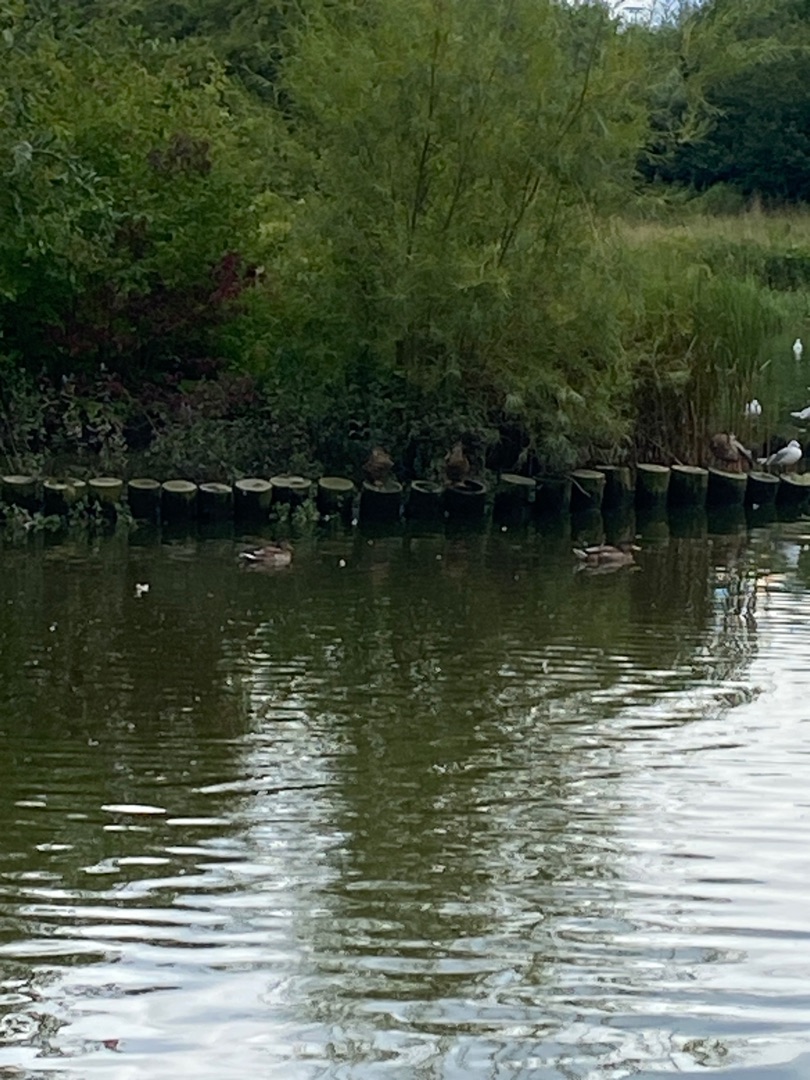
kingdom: Animalia
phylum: Chordata
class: Aves
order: Anseriformes
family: Anatidae
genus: Anas
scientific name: Anas platyrhynchos
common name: Gråand
